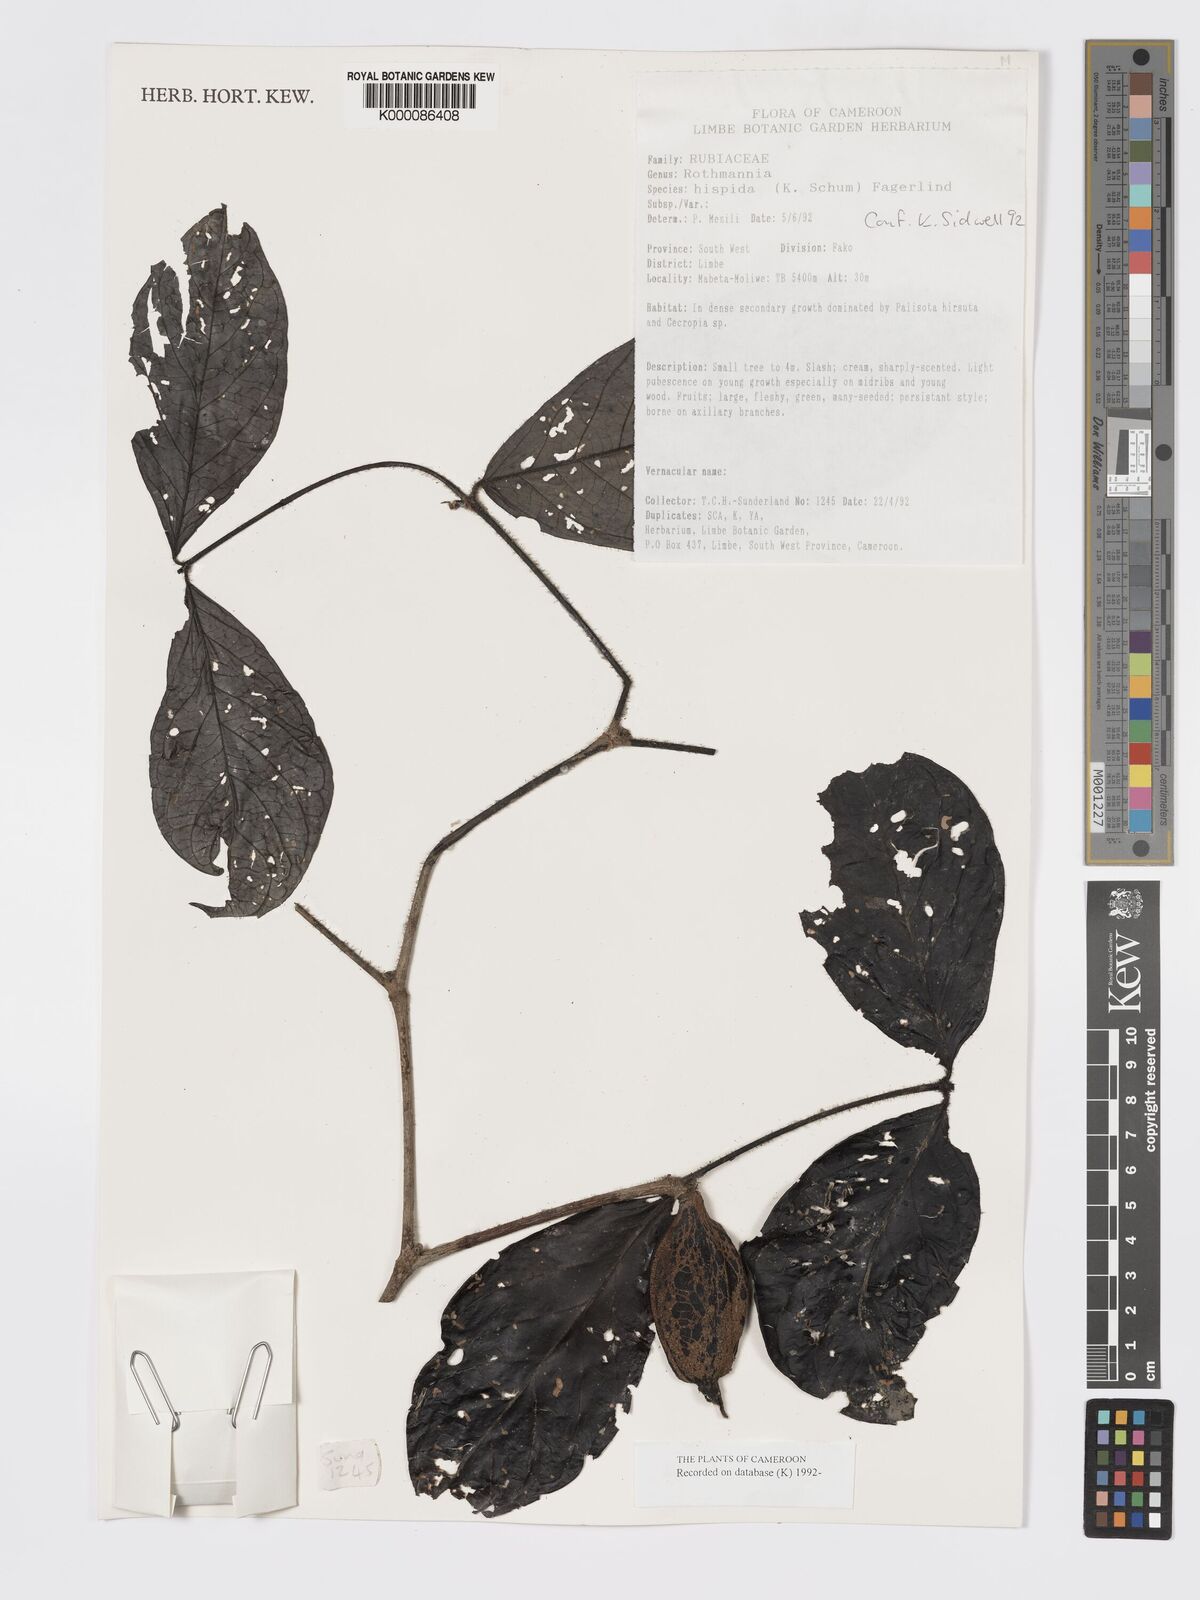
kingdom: Plantae
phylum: Tracheophyta
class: Magnoliopsida
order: Gentianales
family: Rubiaceae
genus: Rothmannia
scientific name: Rothmannia hispida
